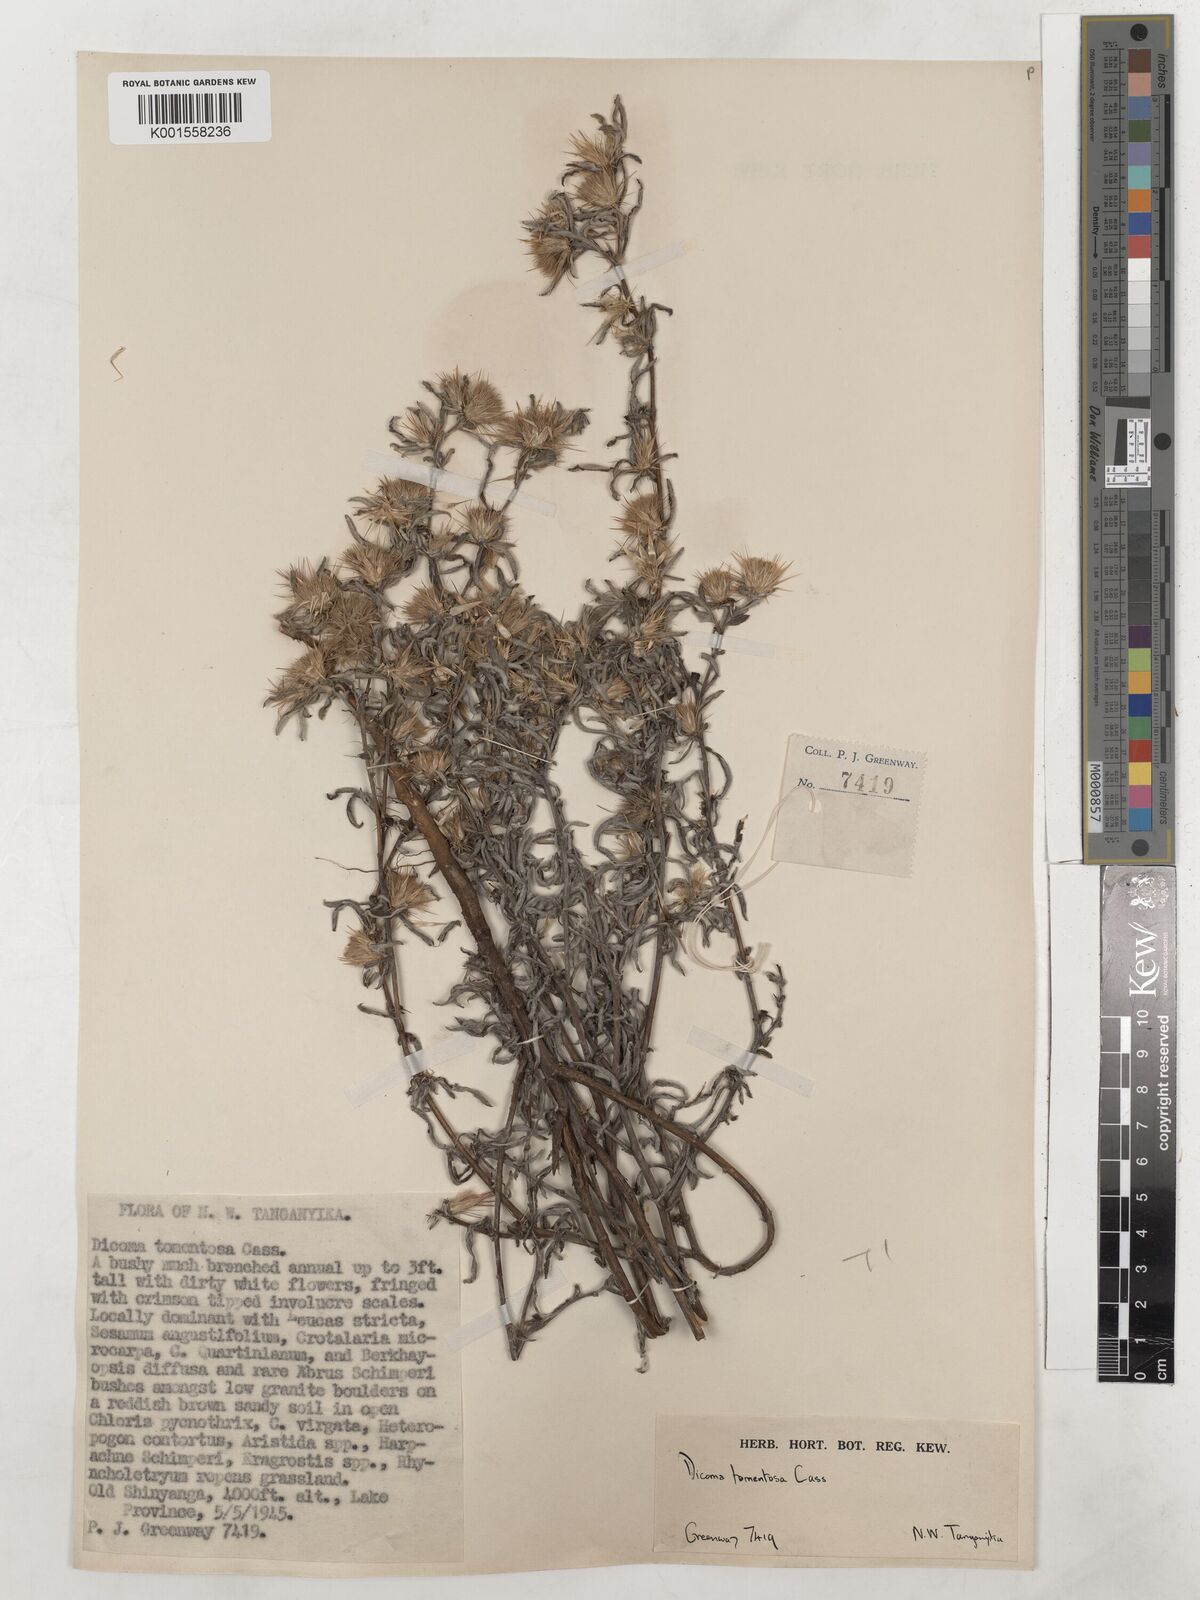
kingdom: Plantae
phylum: Tracheophyta
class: Magnoliopsida
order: Asterales
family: Asteraceae
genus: Dicoma
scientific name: Dicoma tomentosa
